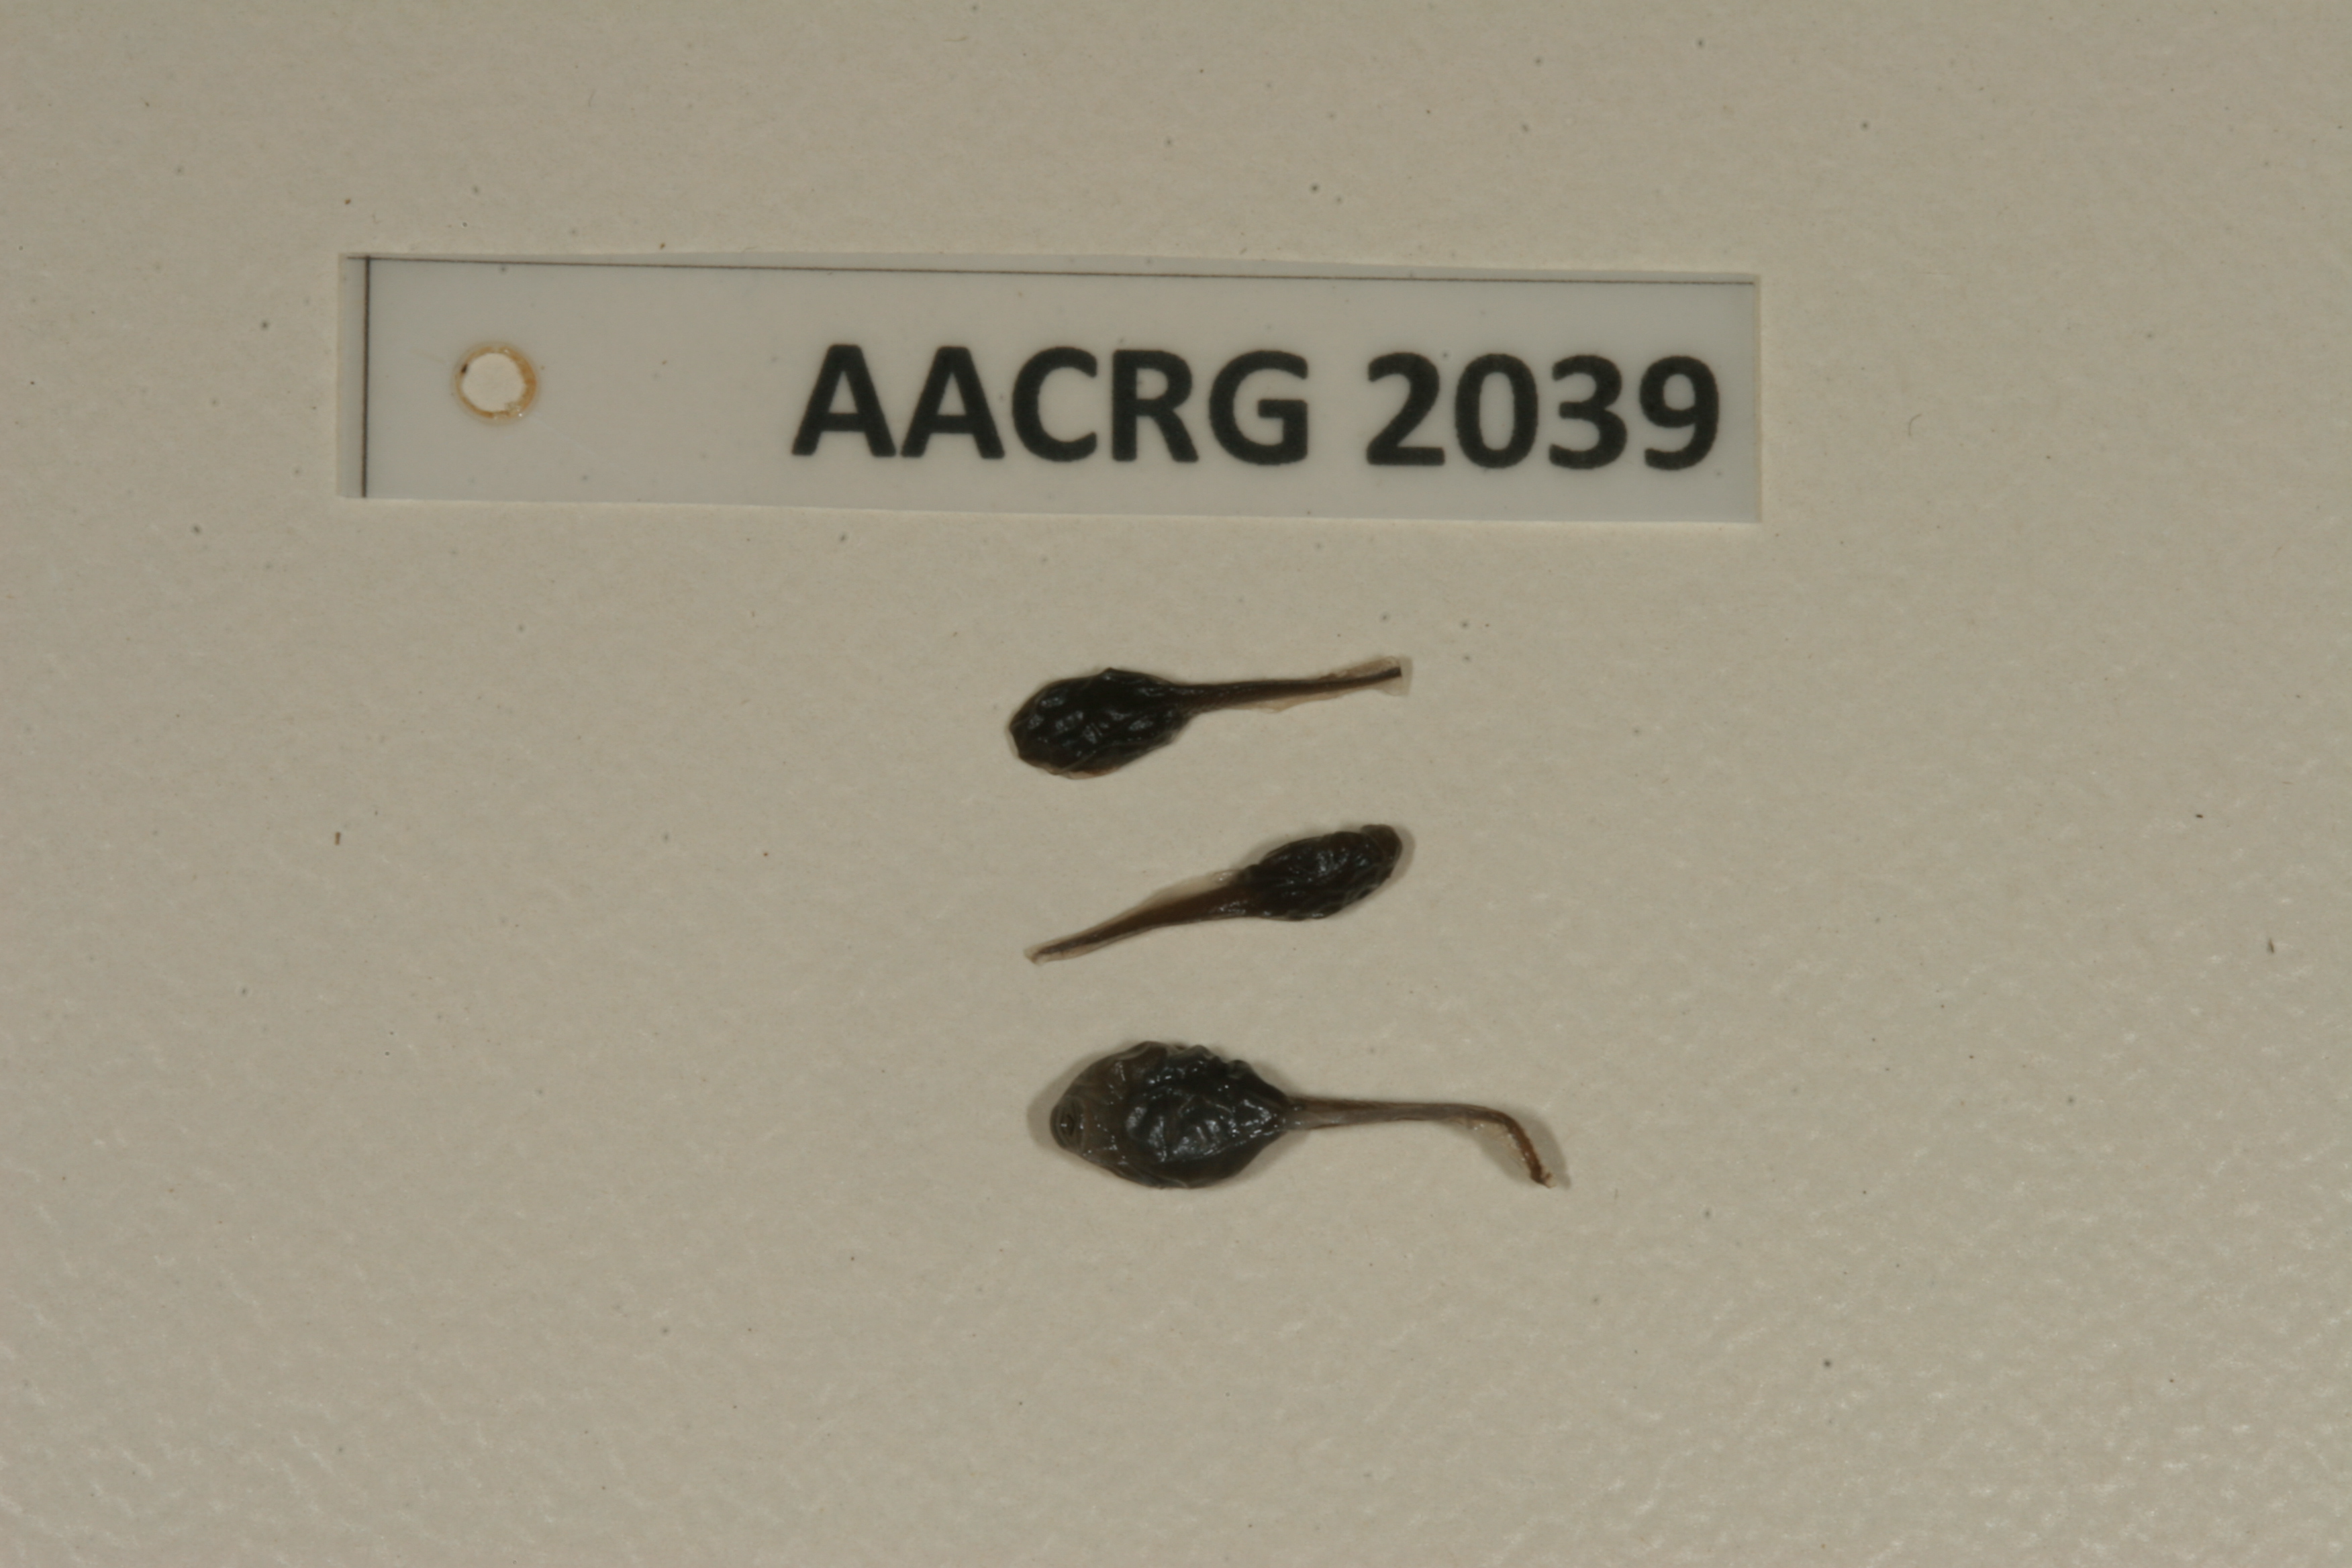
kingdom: Animalia
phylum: Chordata
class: Amphibia
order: Anura
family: Bufonidae
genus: Sclerophrys
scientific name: Sclerophrys garmani
